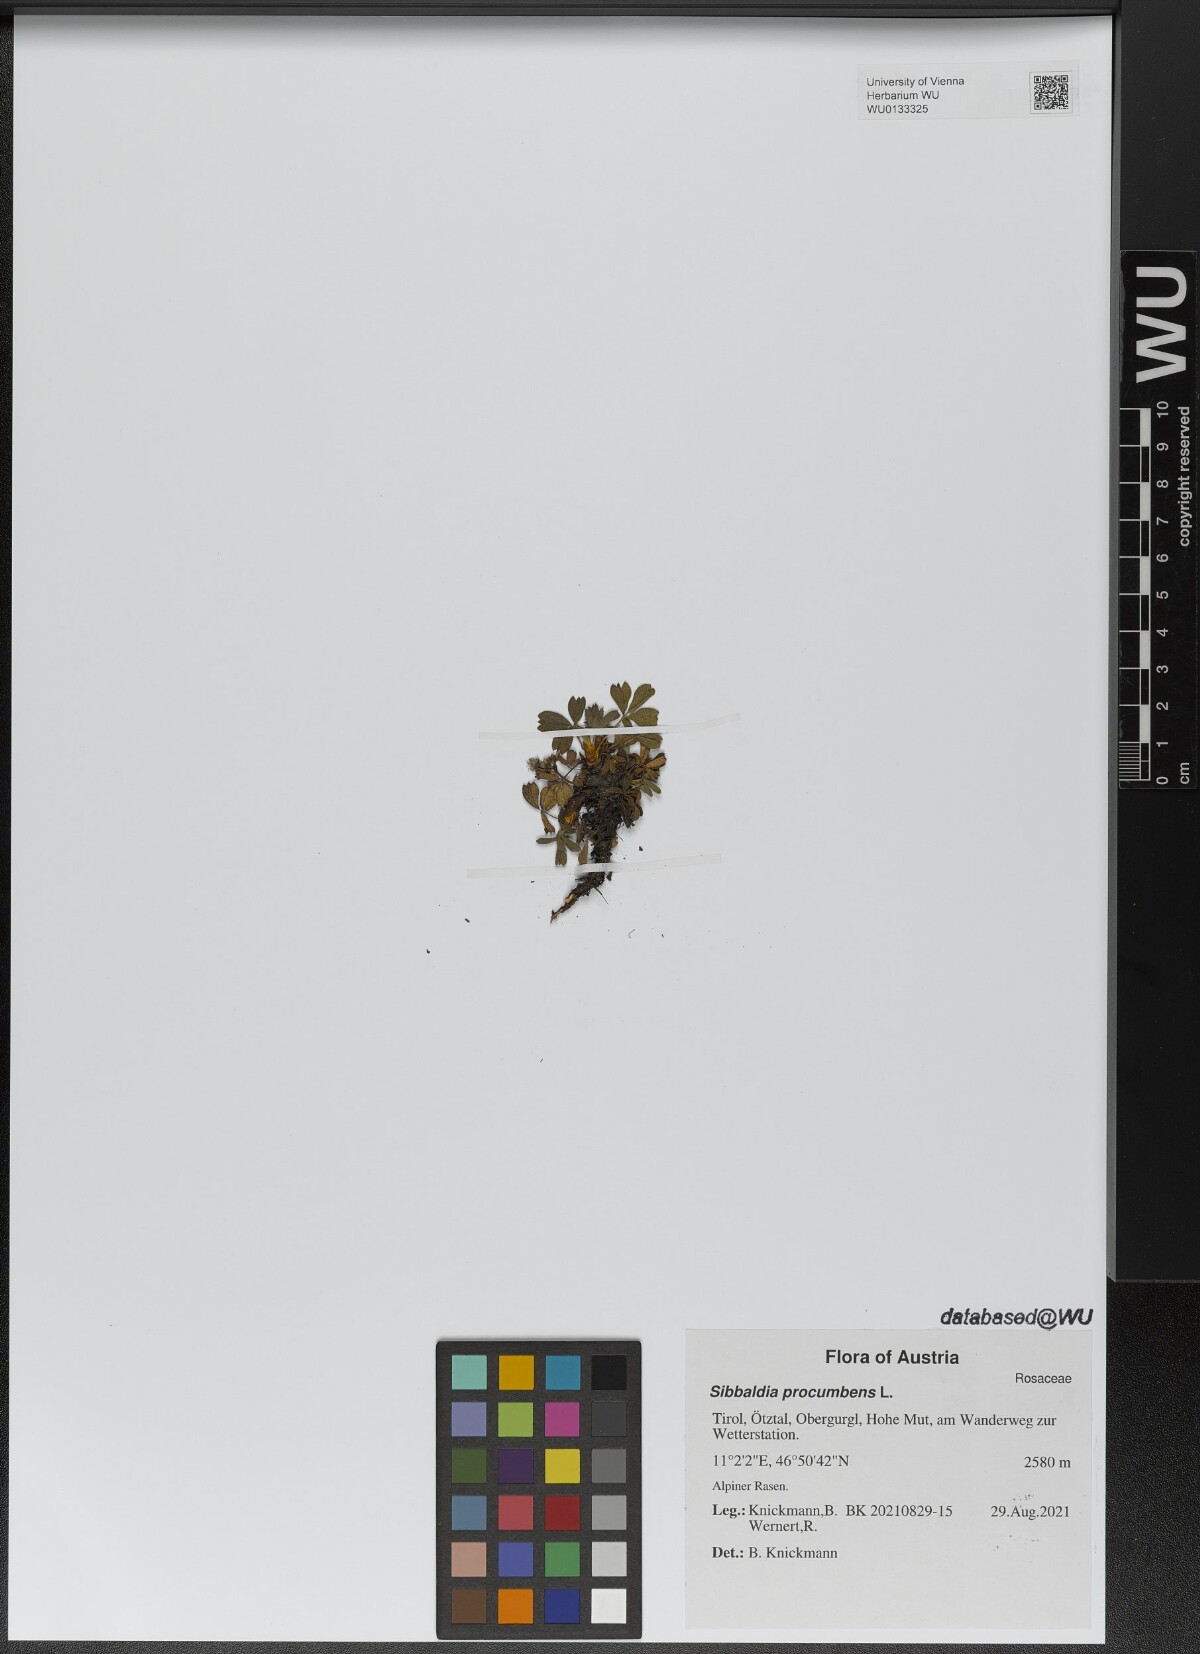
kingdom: Plantae
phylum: Tracheophyta
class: Magnoliopsida
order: Rosales
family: Rosaceae
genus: Sibbaldia
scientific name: Sibbaldia procumbens
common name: Creeping sibbaldia
